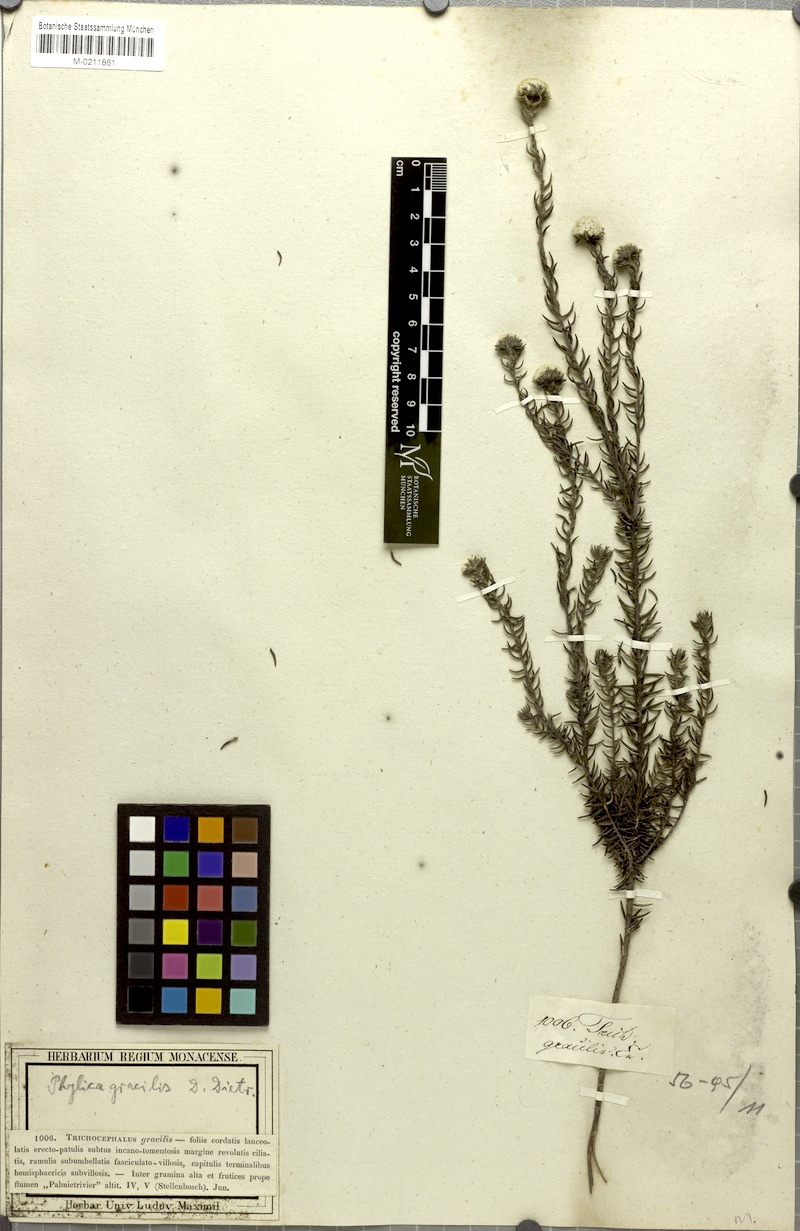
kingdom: Plantae
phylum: Tracheophyta
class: Magnoliopsida
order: Rosales
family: Rhamnaceae
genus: Phylica
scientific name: Phylica gracilis
